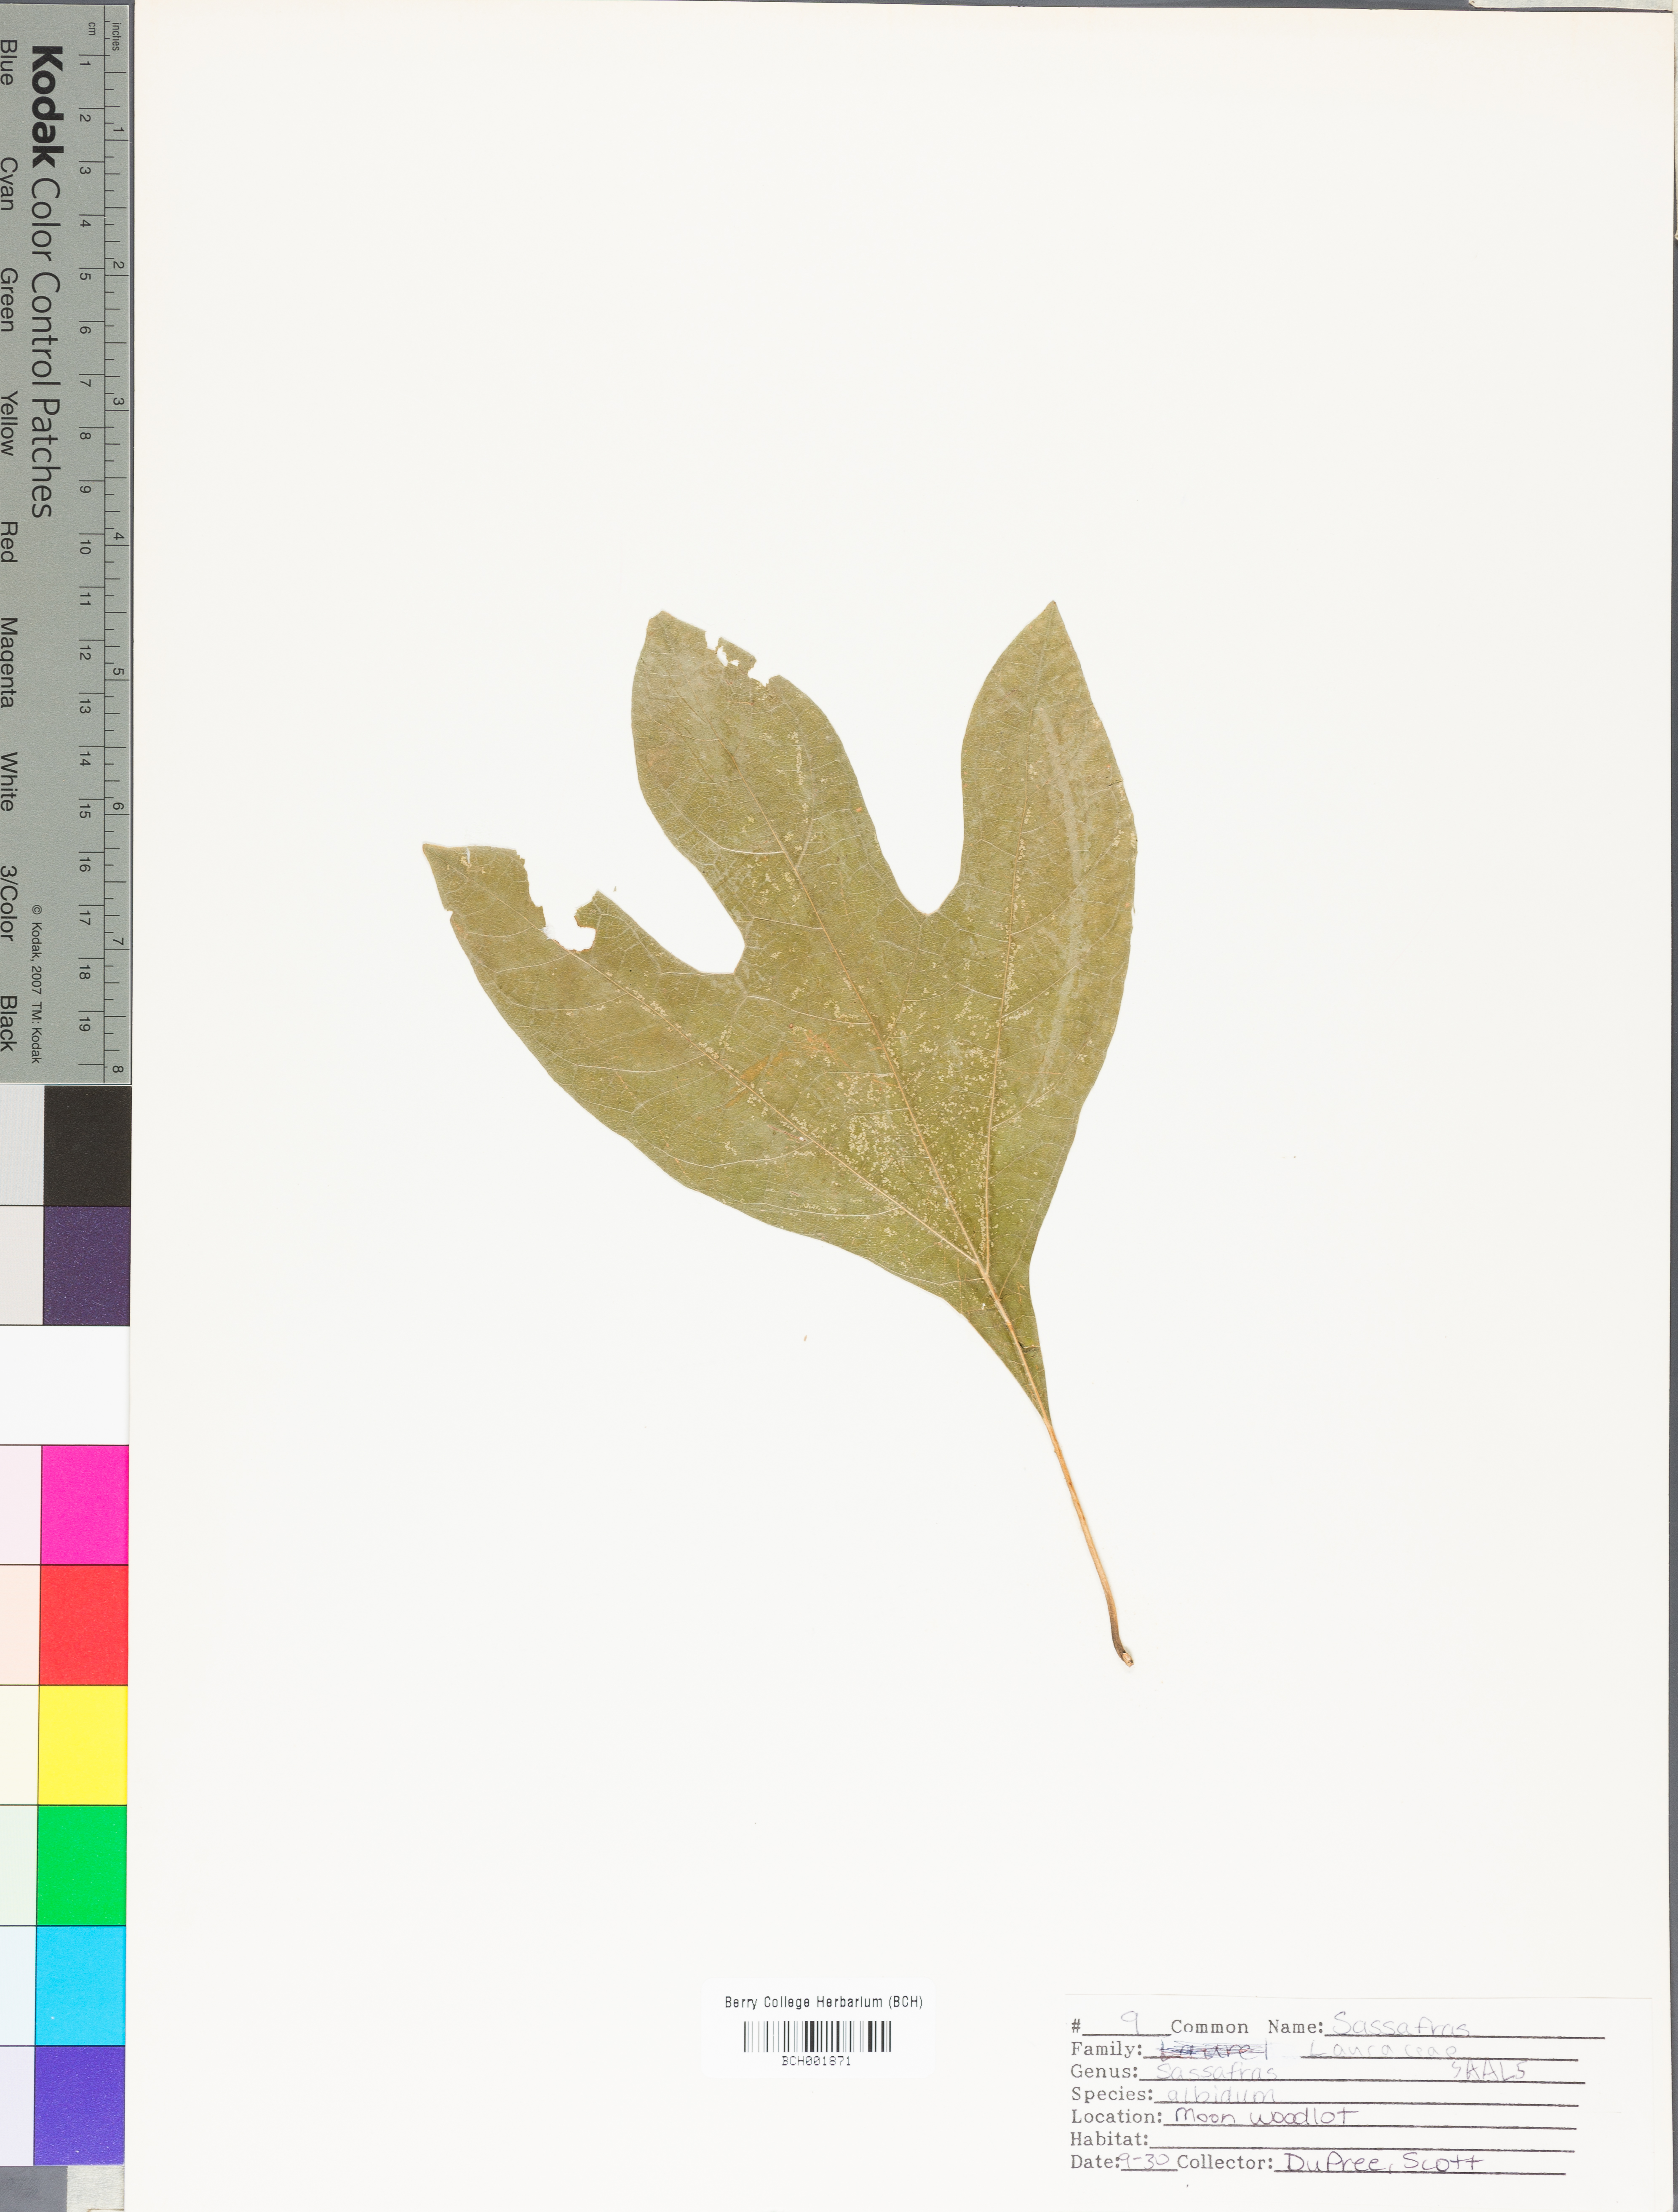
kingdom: Plantae
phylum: Tracheophyta
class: Magnoliopsida
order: Laurales
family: Lauraceae
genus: Sassafras
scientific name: Sassafras albidum
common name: Sassafras
